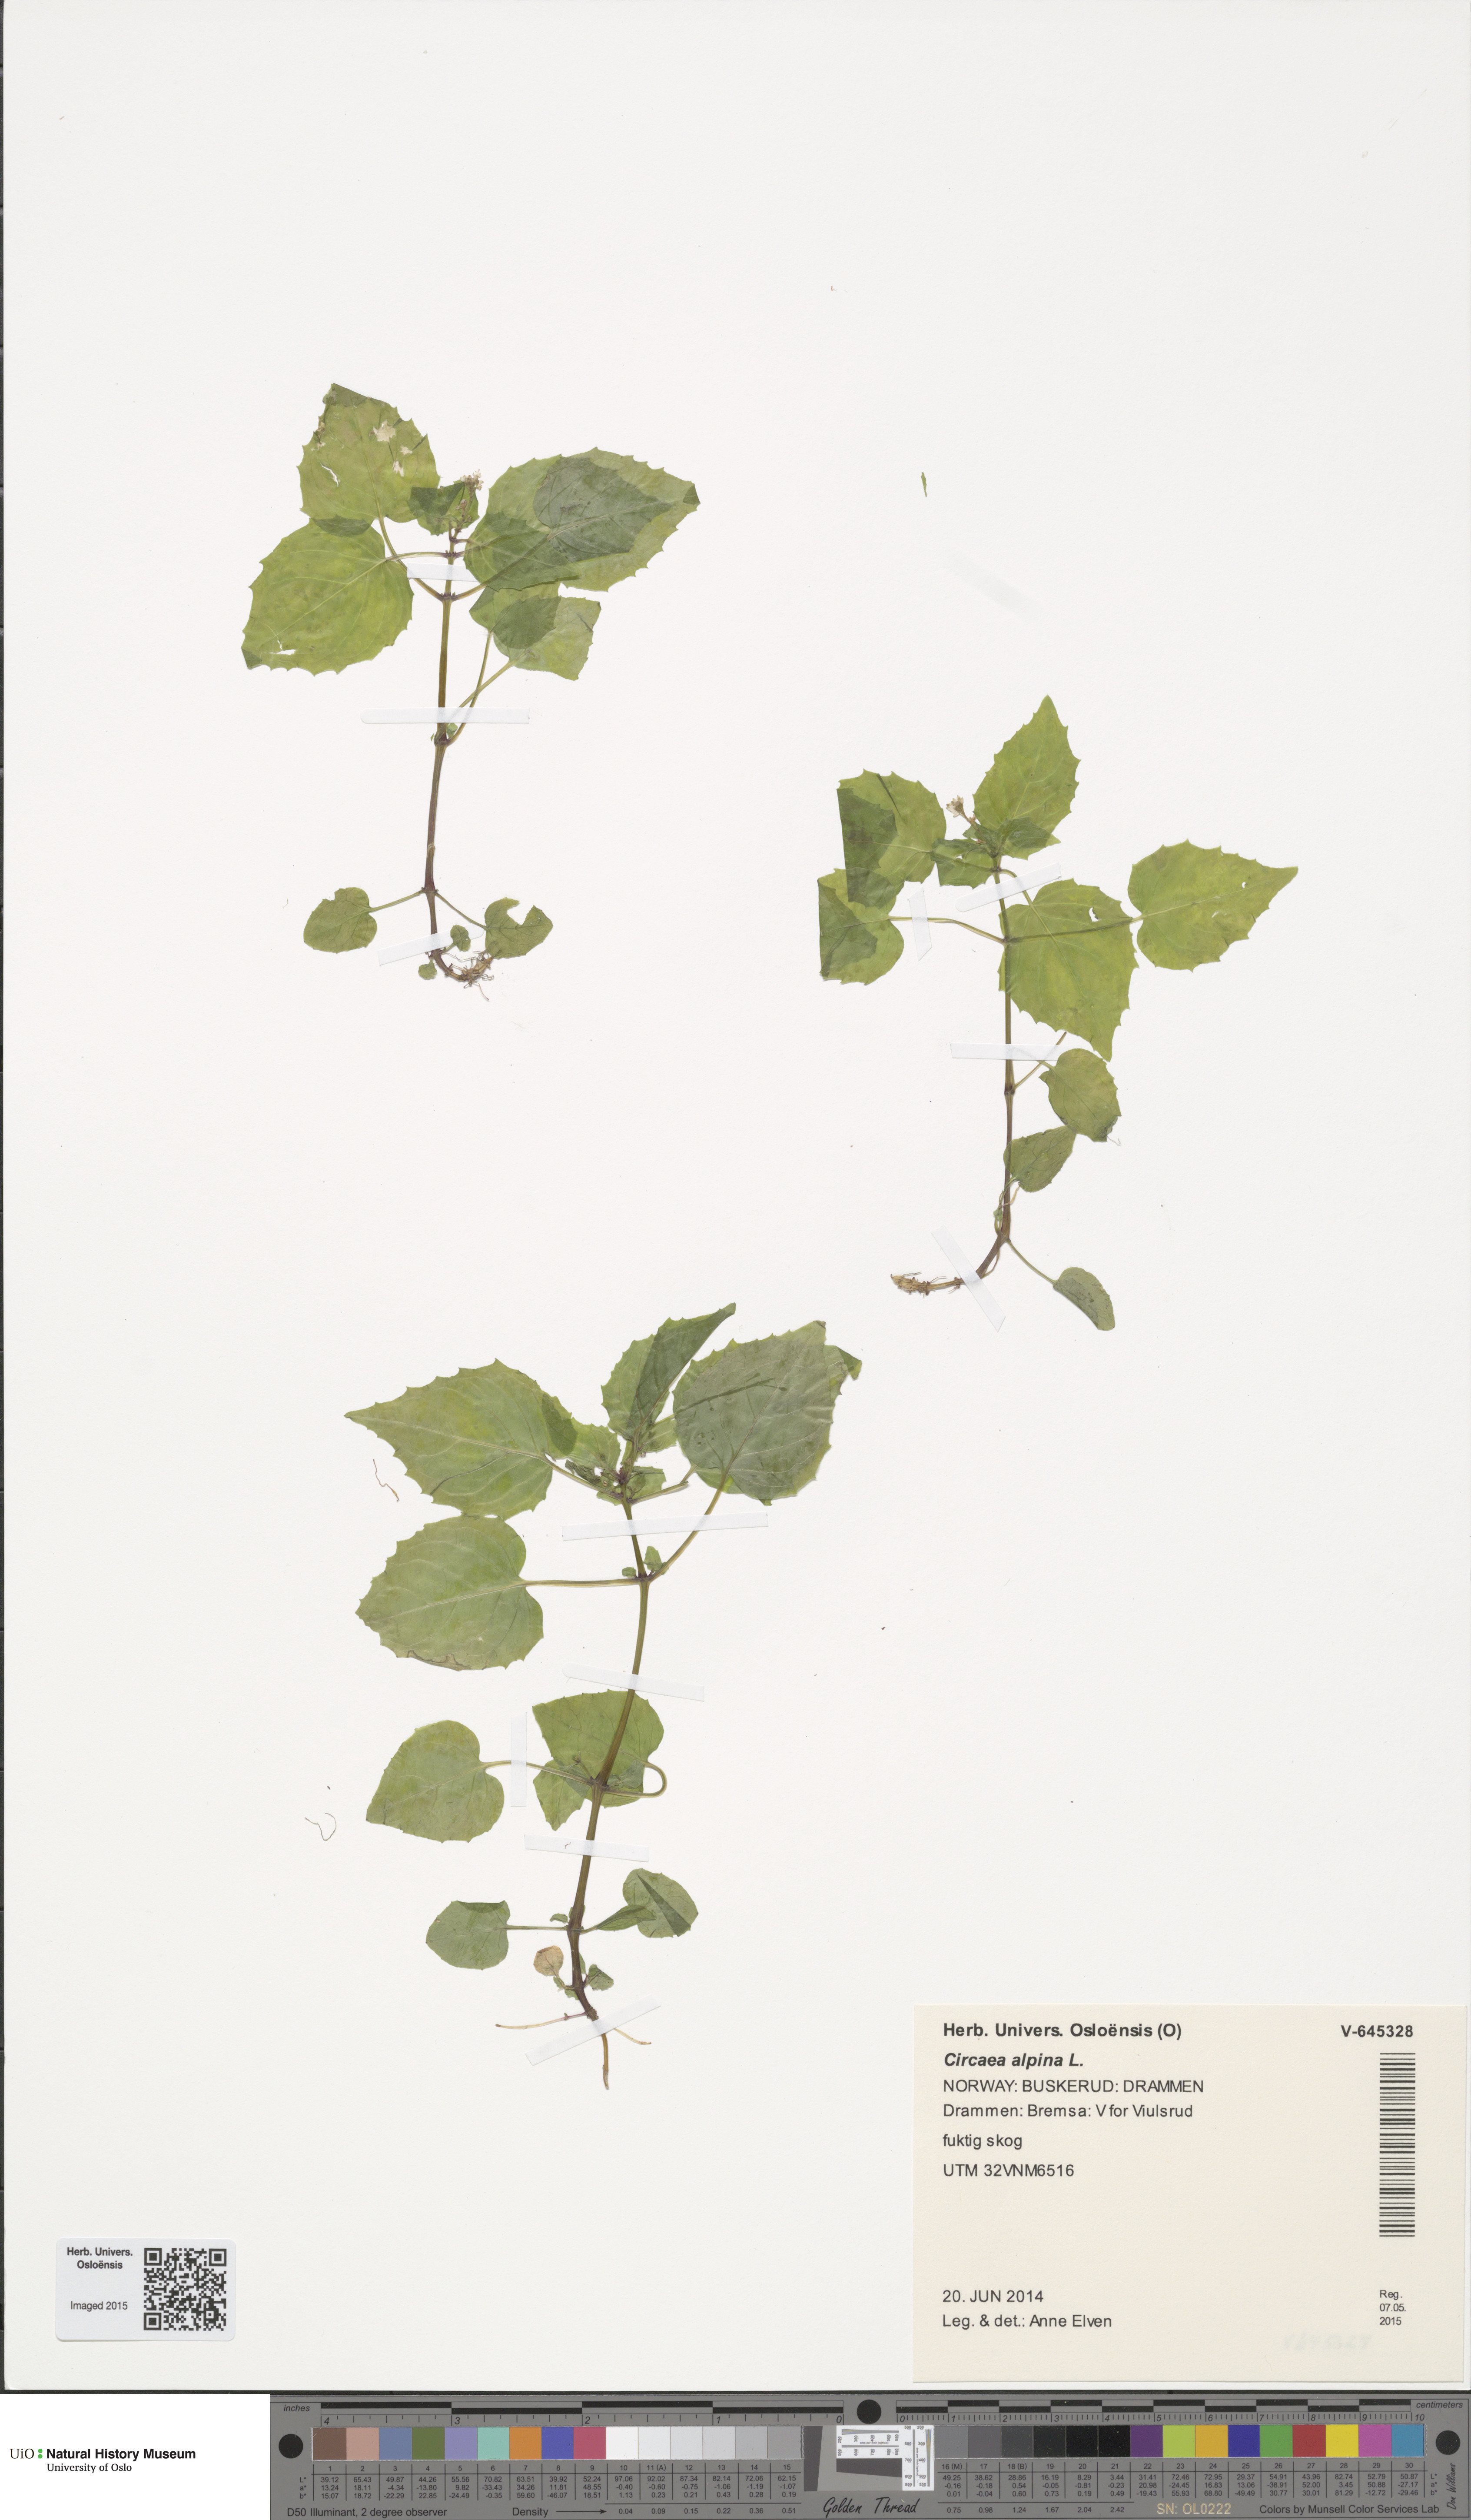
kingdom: Plantae
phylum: Tracheophyta
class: Magnoliopsida
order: Myrtales
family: Onagraceae
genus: Circaea
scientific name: Circaea alpina
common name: Alpine enchanter's-nightshade
